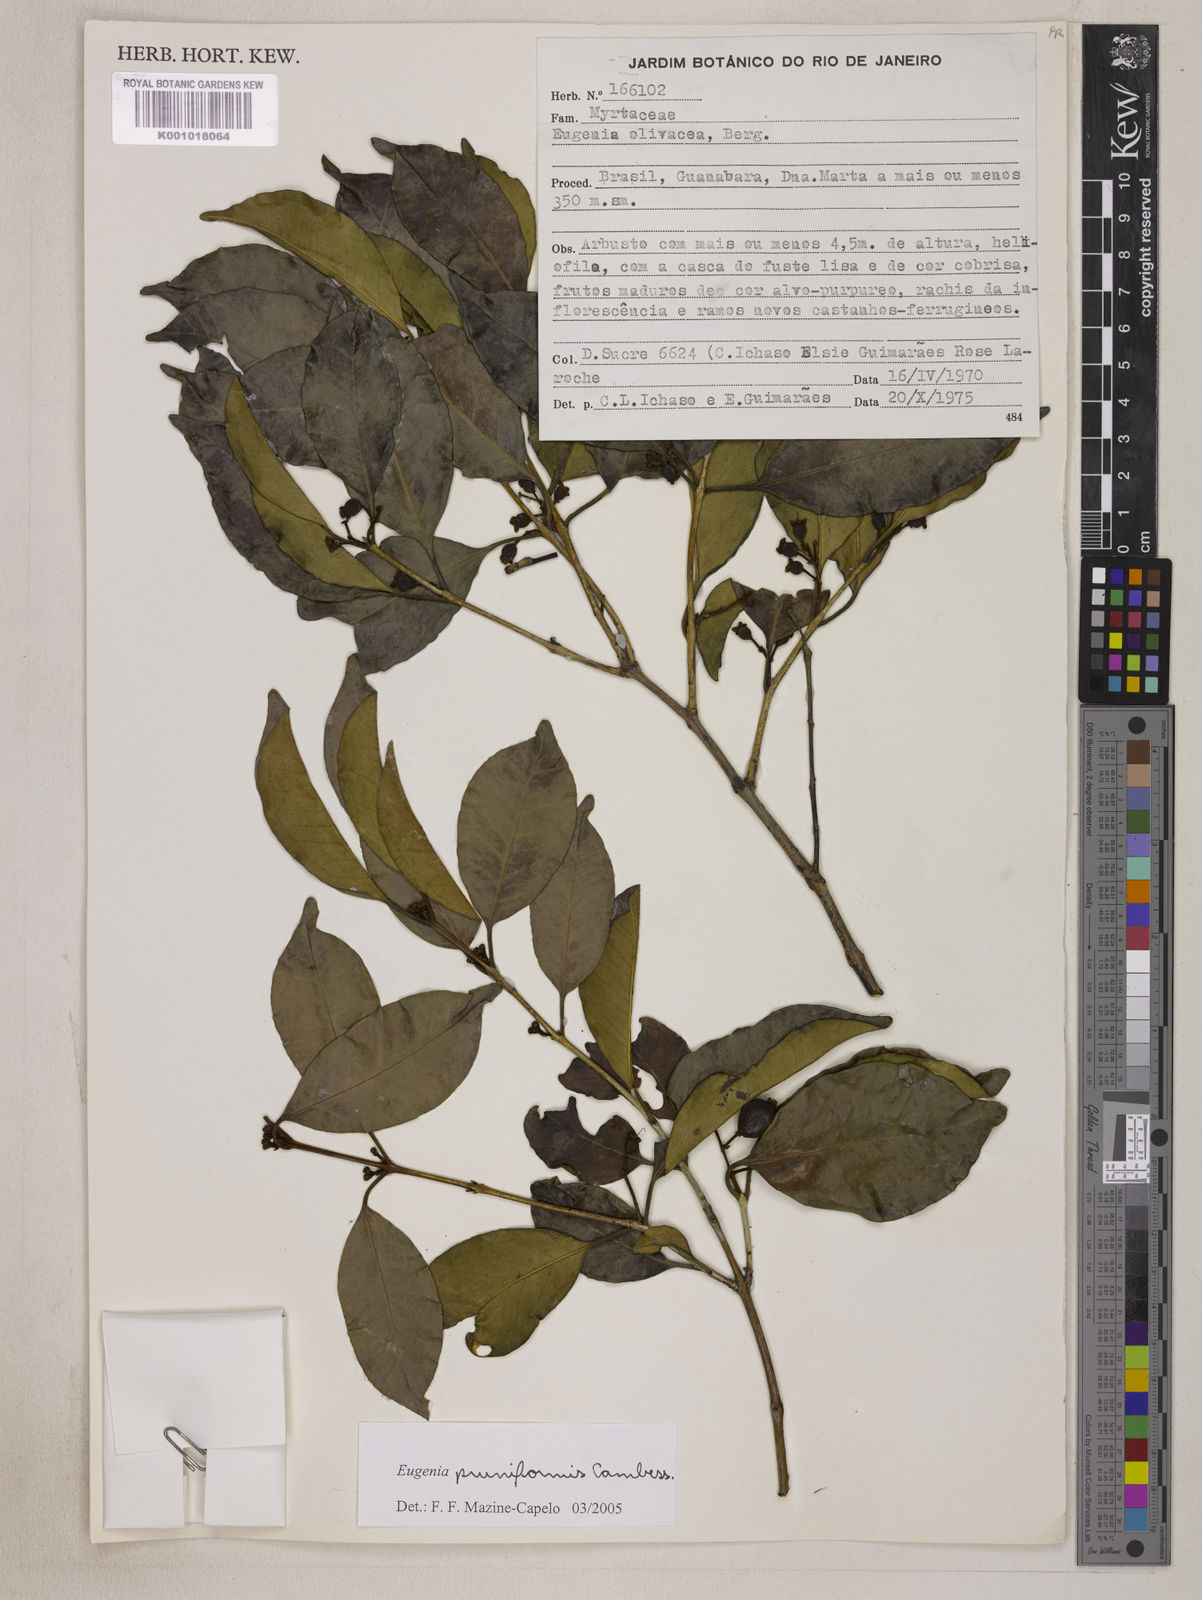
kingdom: Plantae
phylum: Tracheophyta
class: Magnoliopsida
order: Myrtales
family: Myrtaceae
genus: Eugenia
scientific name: Eugenia pruniformis
